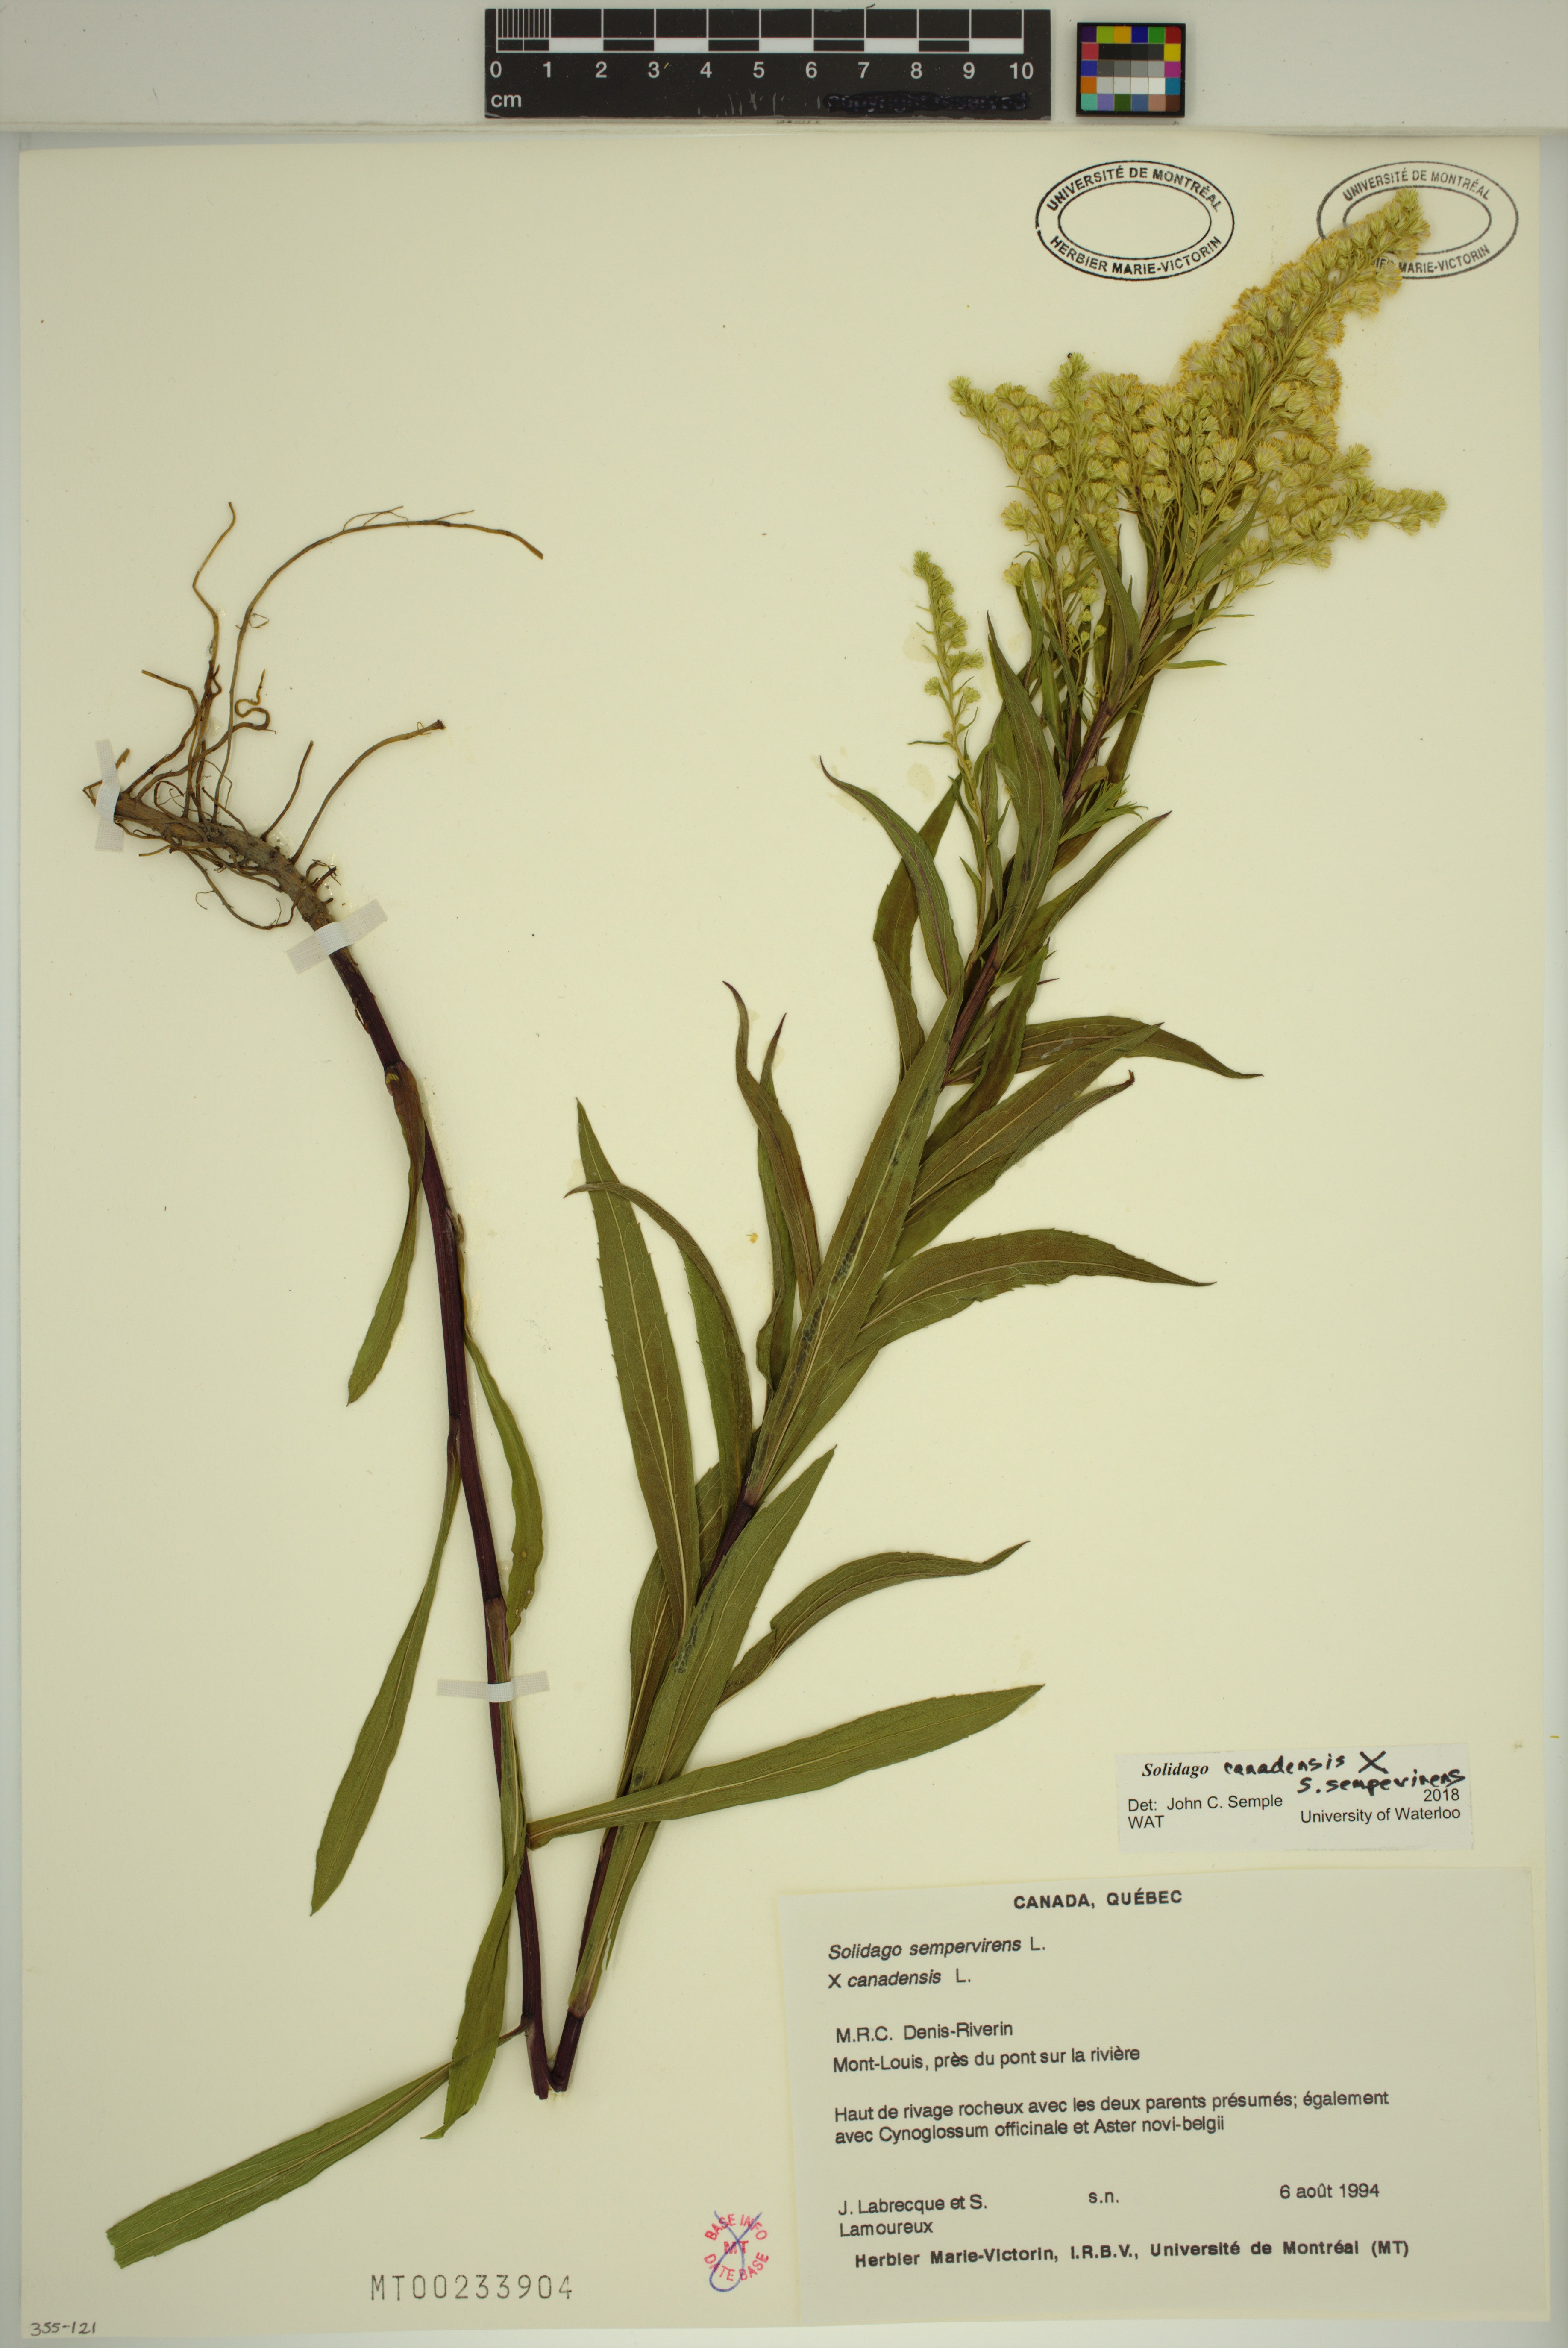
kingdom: Plantae
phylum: Tracheophyta
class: Magnoliopsida
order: Asterales
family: Asteraceae
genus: Solidago
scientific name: Solidago canadensis
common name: Canada goldenrod
